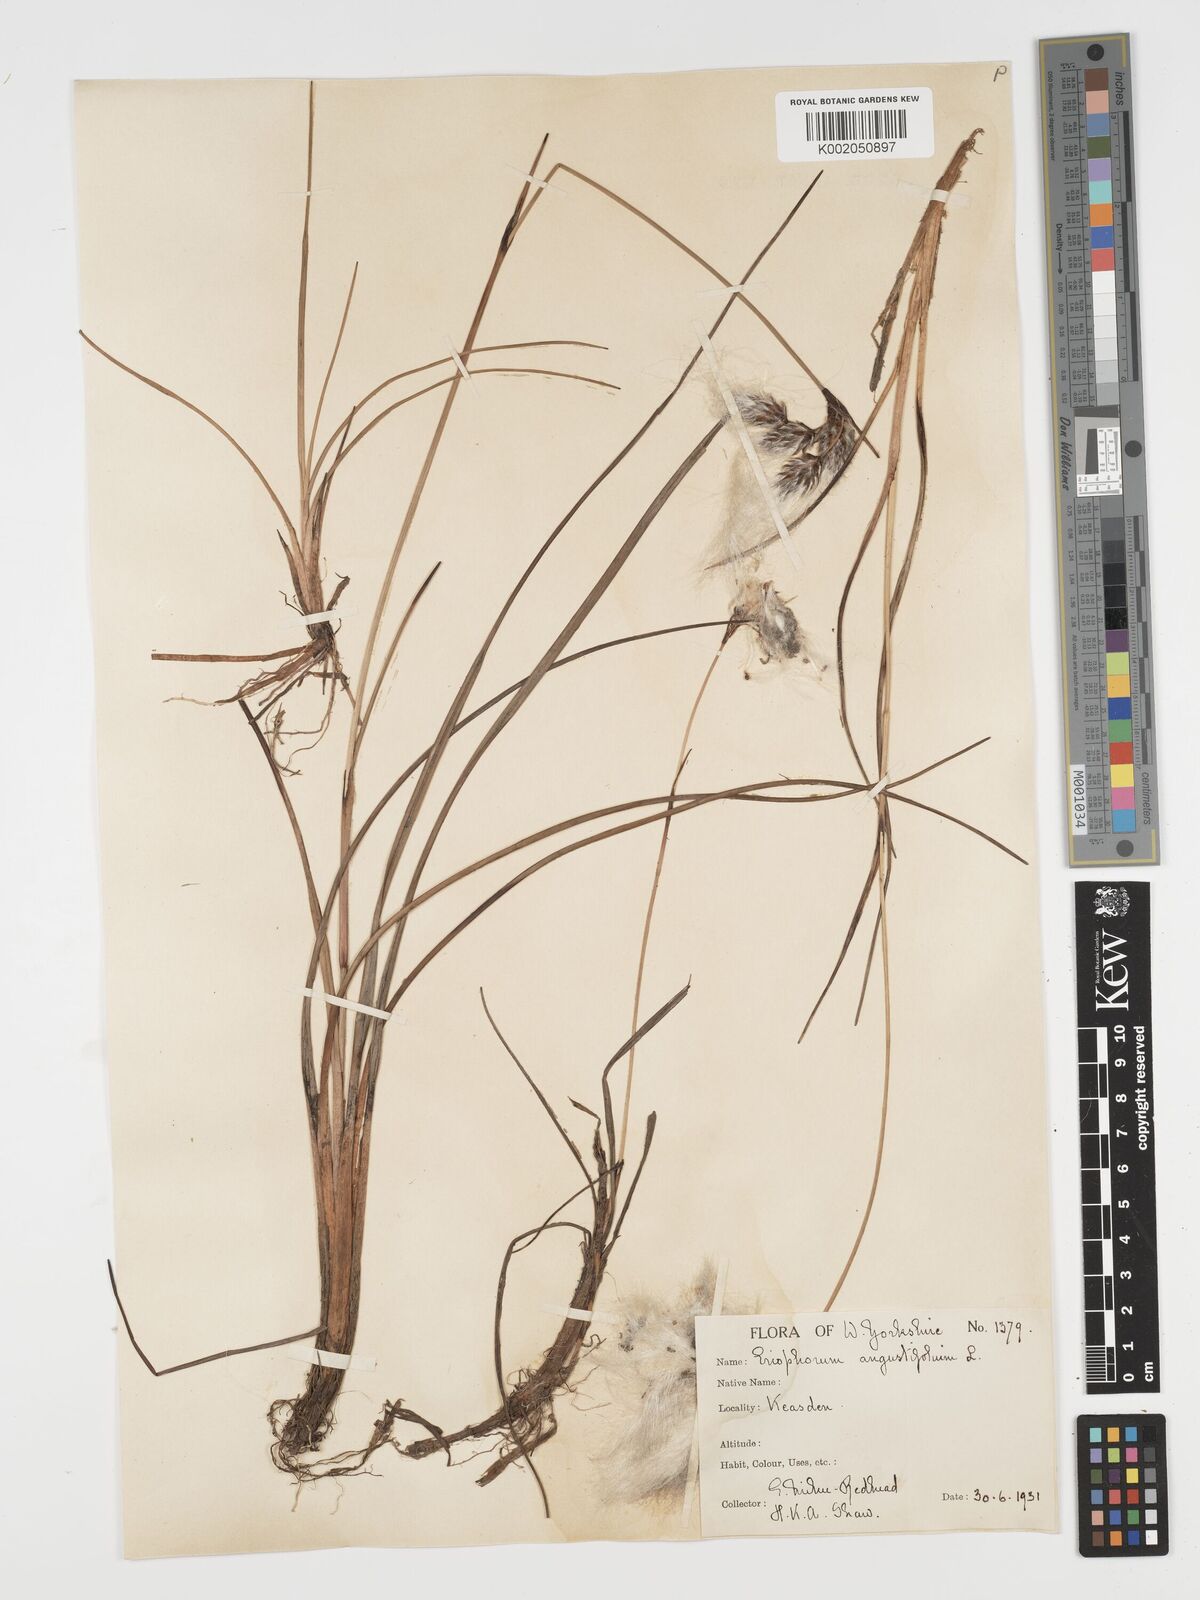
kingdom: Plantae
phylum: Tracheophyta
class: Liliopsida
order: Poales
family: Cyperaceae
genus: Eriophorum
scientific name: Eriophorum angustifolium
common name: Common cottongrass
